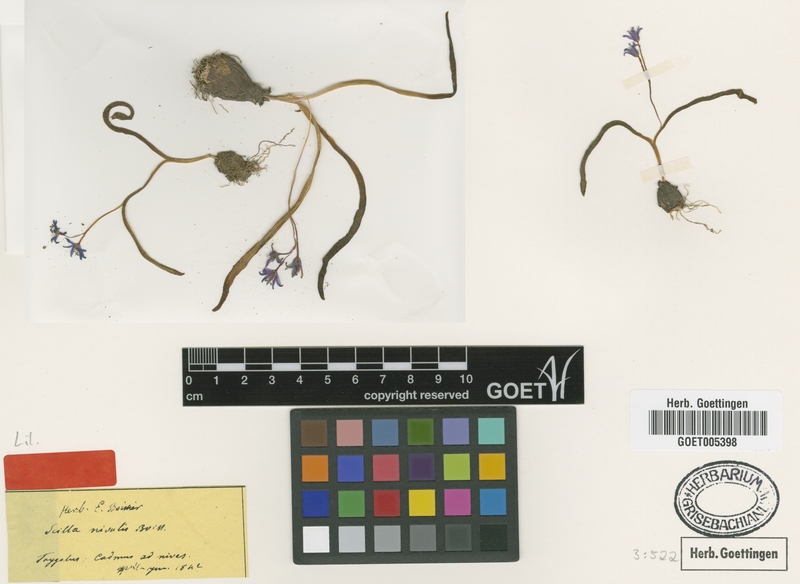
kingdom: Plantae
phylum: Tracheophyta
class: Liliopsida
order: Asparagales
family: Asparagaceae
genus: Scilla
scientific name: Scilla nivalis
